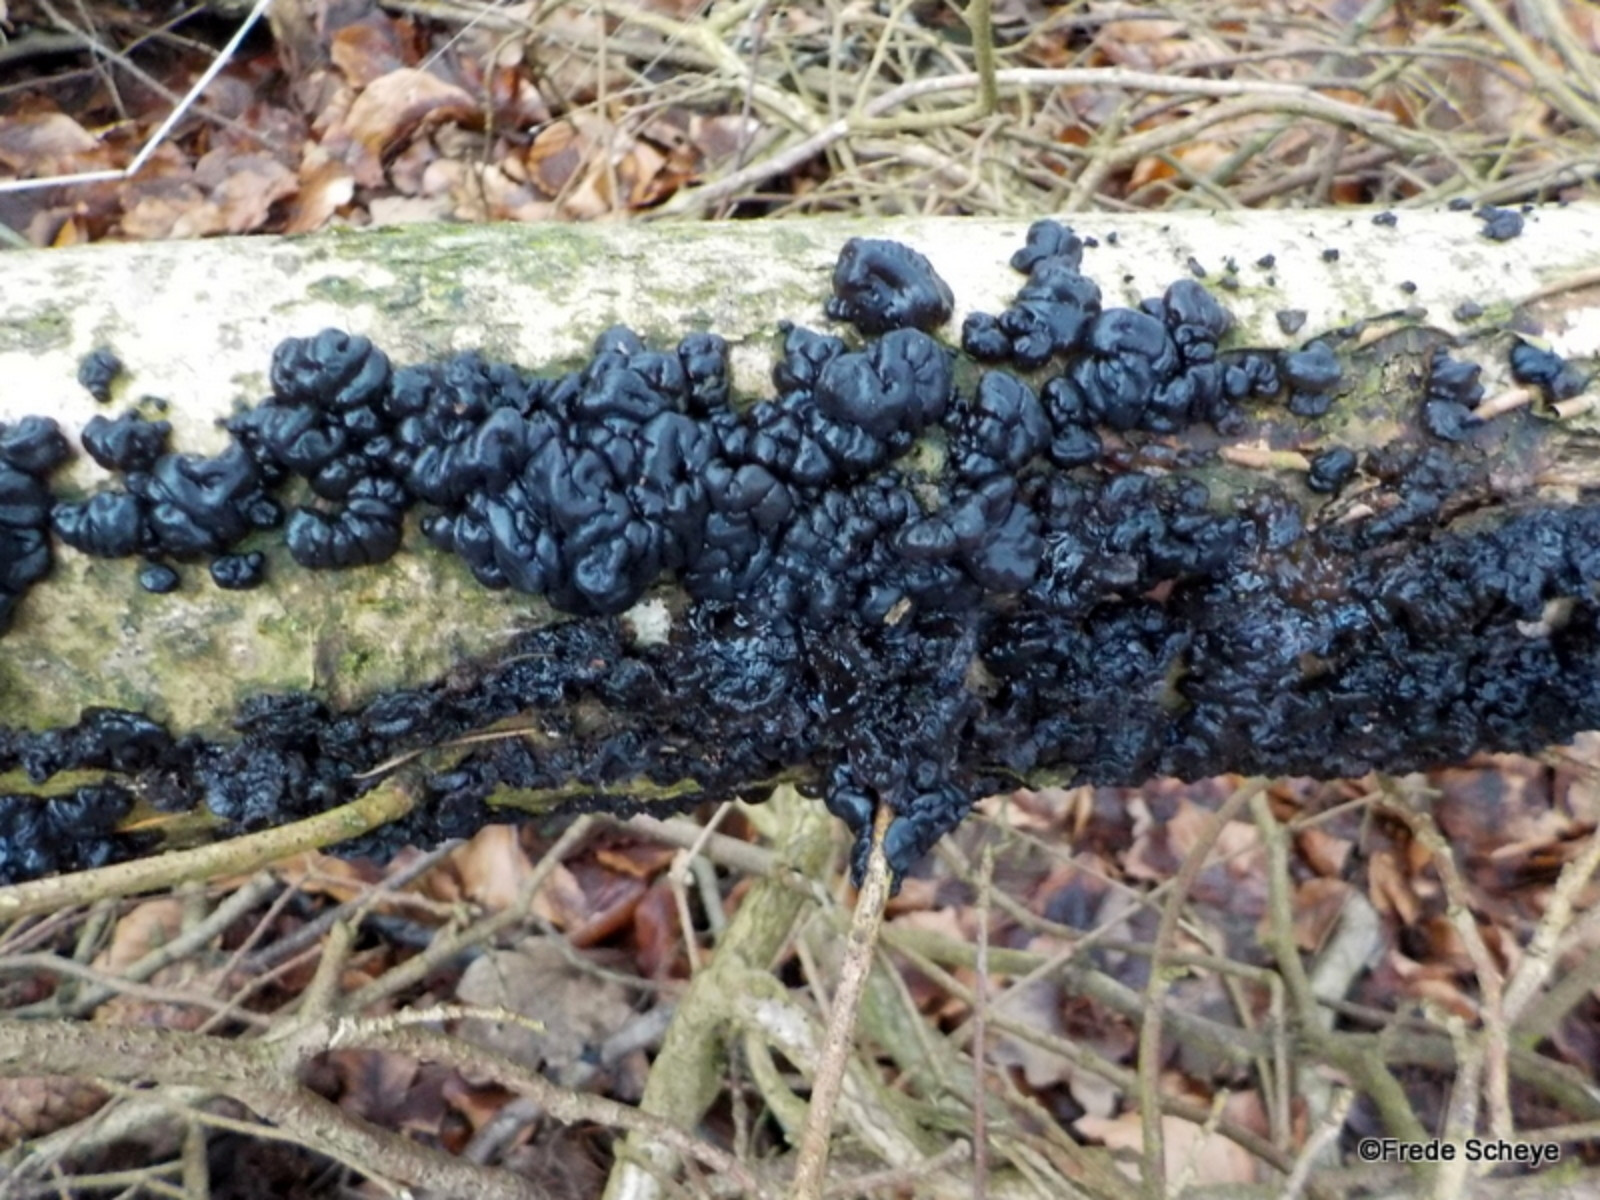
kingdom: Fungi
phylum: Basidiomycota
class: Agaricomycetes
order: Auriculariales
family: Auriculariaceae
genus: Exidia
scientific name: Exidia nigricans
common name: almindelig bævretop
